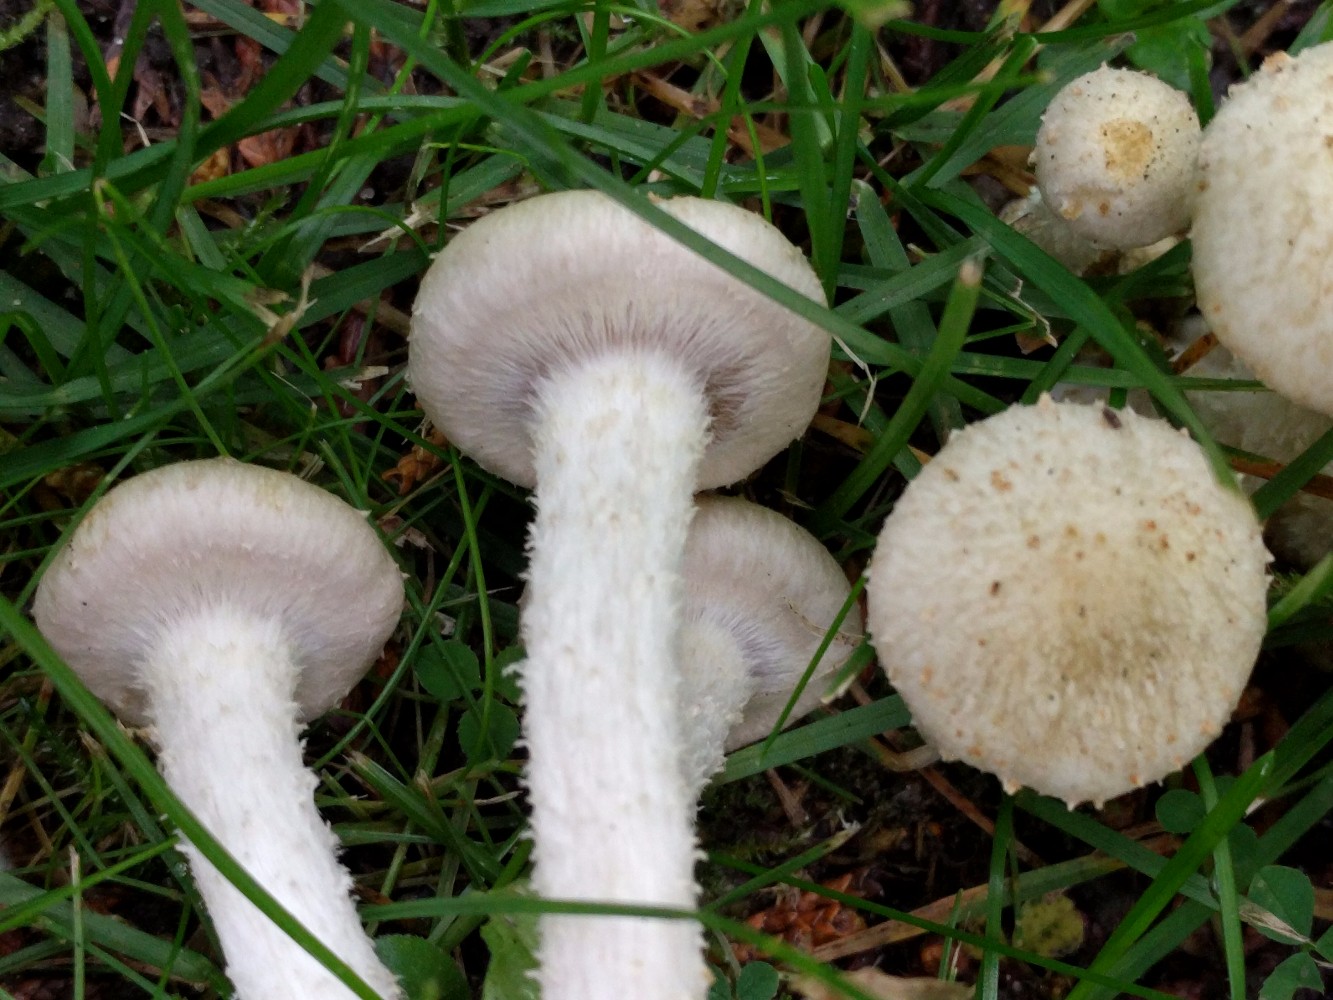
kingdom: Fungi
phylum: Basidiomycota
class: Agaricomycetes
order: Agaricales
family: Strophariaceae
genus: Pholiota
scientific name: Pholiota gummosa
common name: grøngul skælhat
